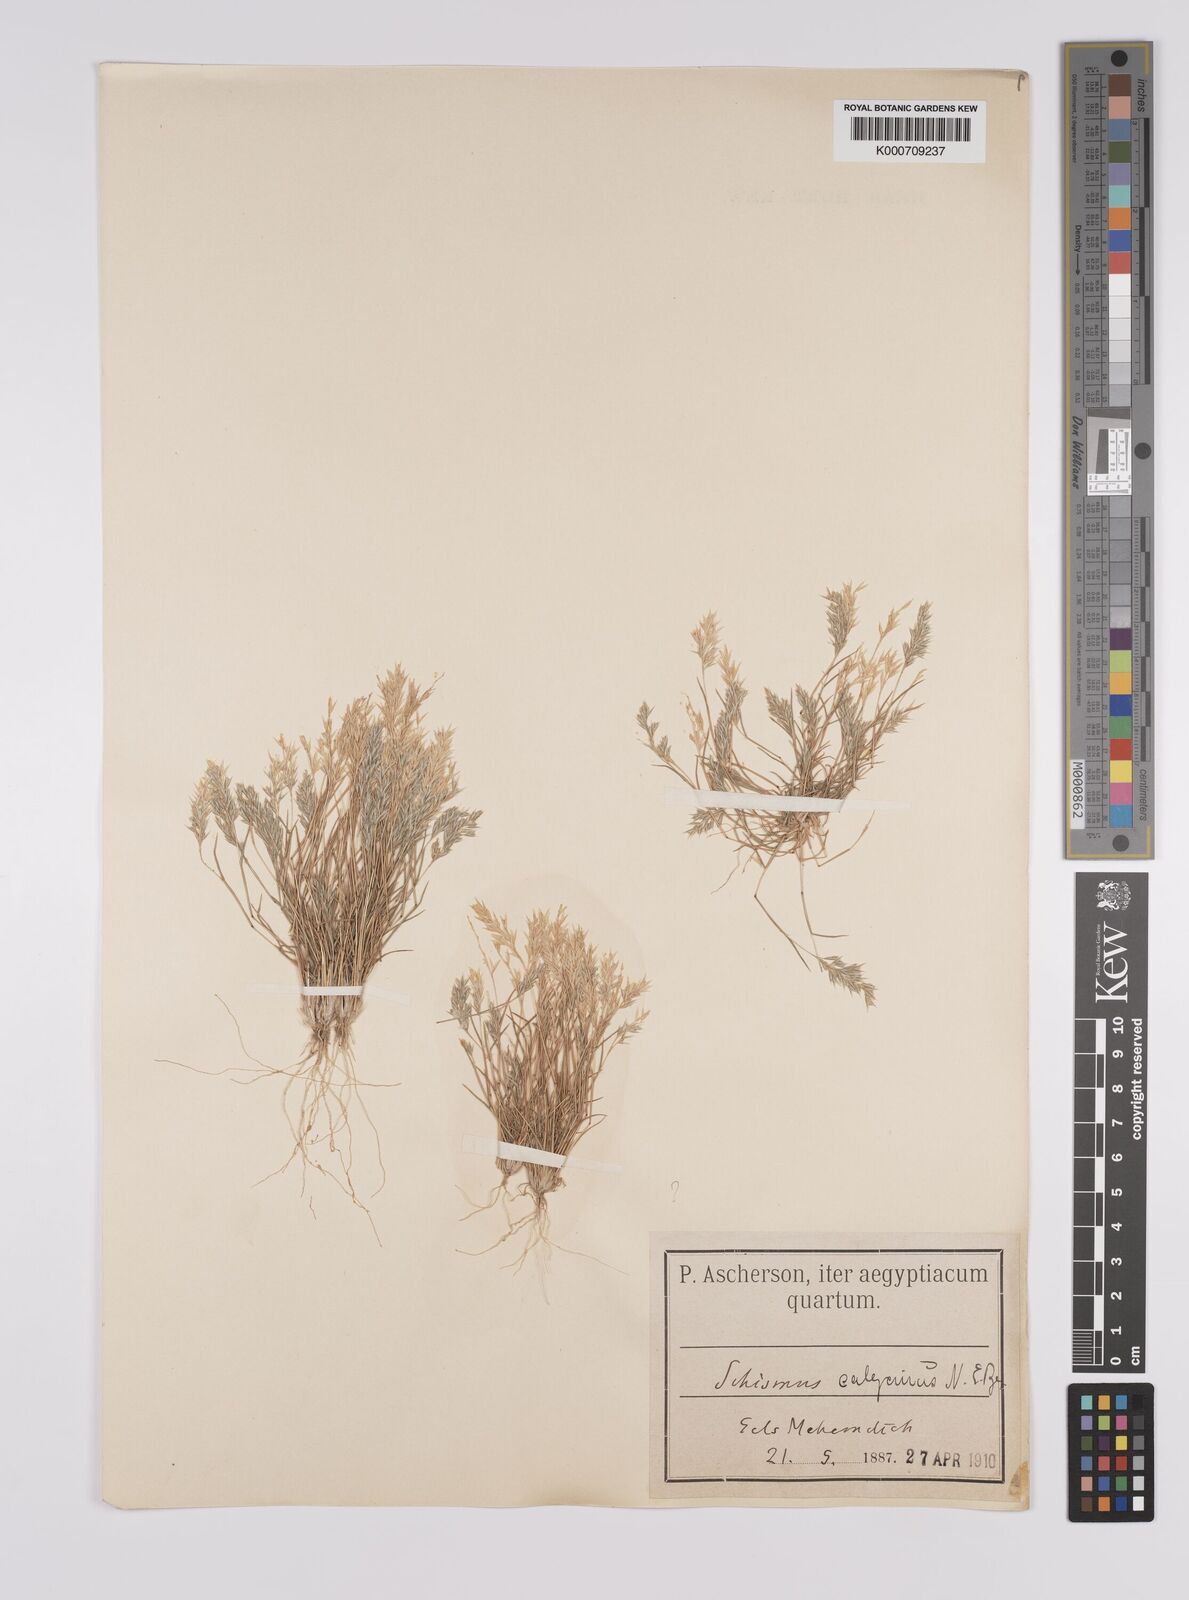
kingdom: Plantae
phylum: Tracheophyta
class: Liliopsida
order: Poales
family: Poaceae
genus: Schismus
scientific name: Schismus barbatus
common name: Kelch-grass
